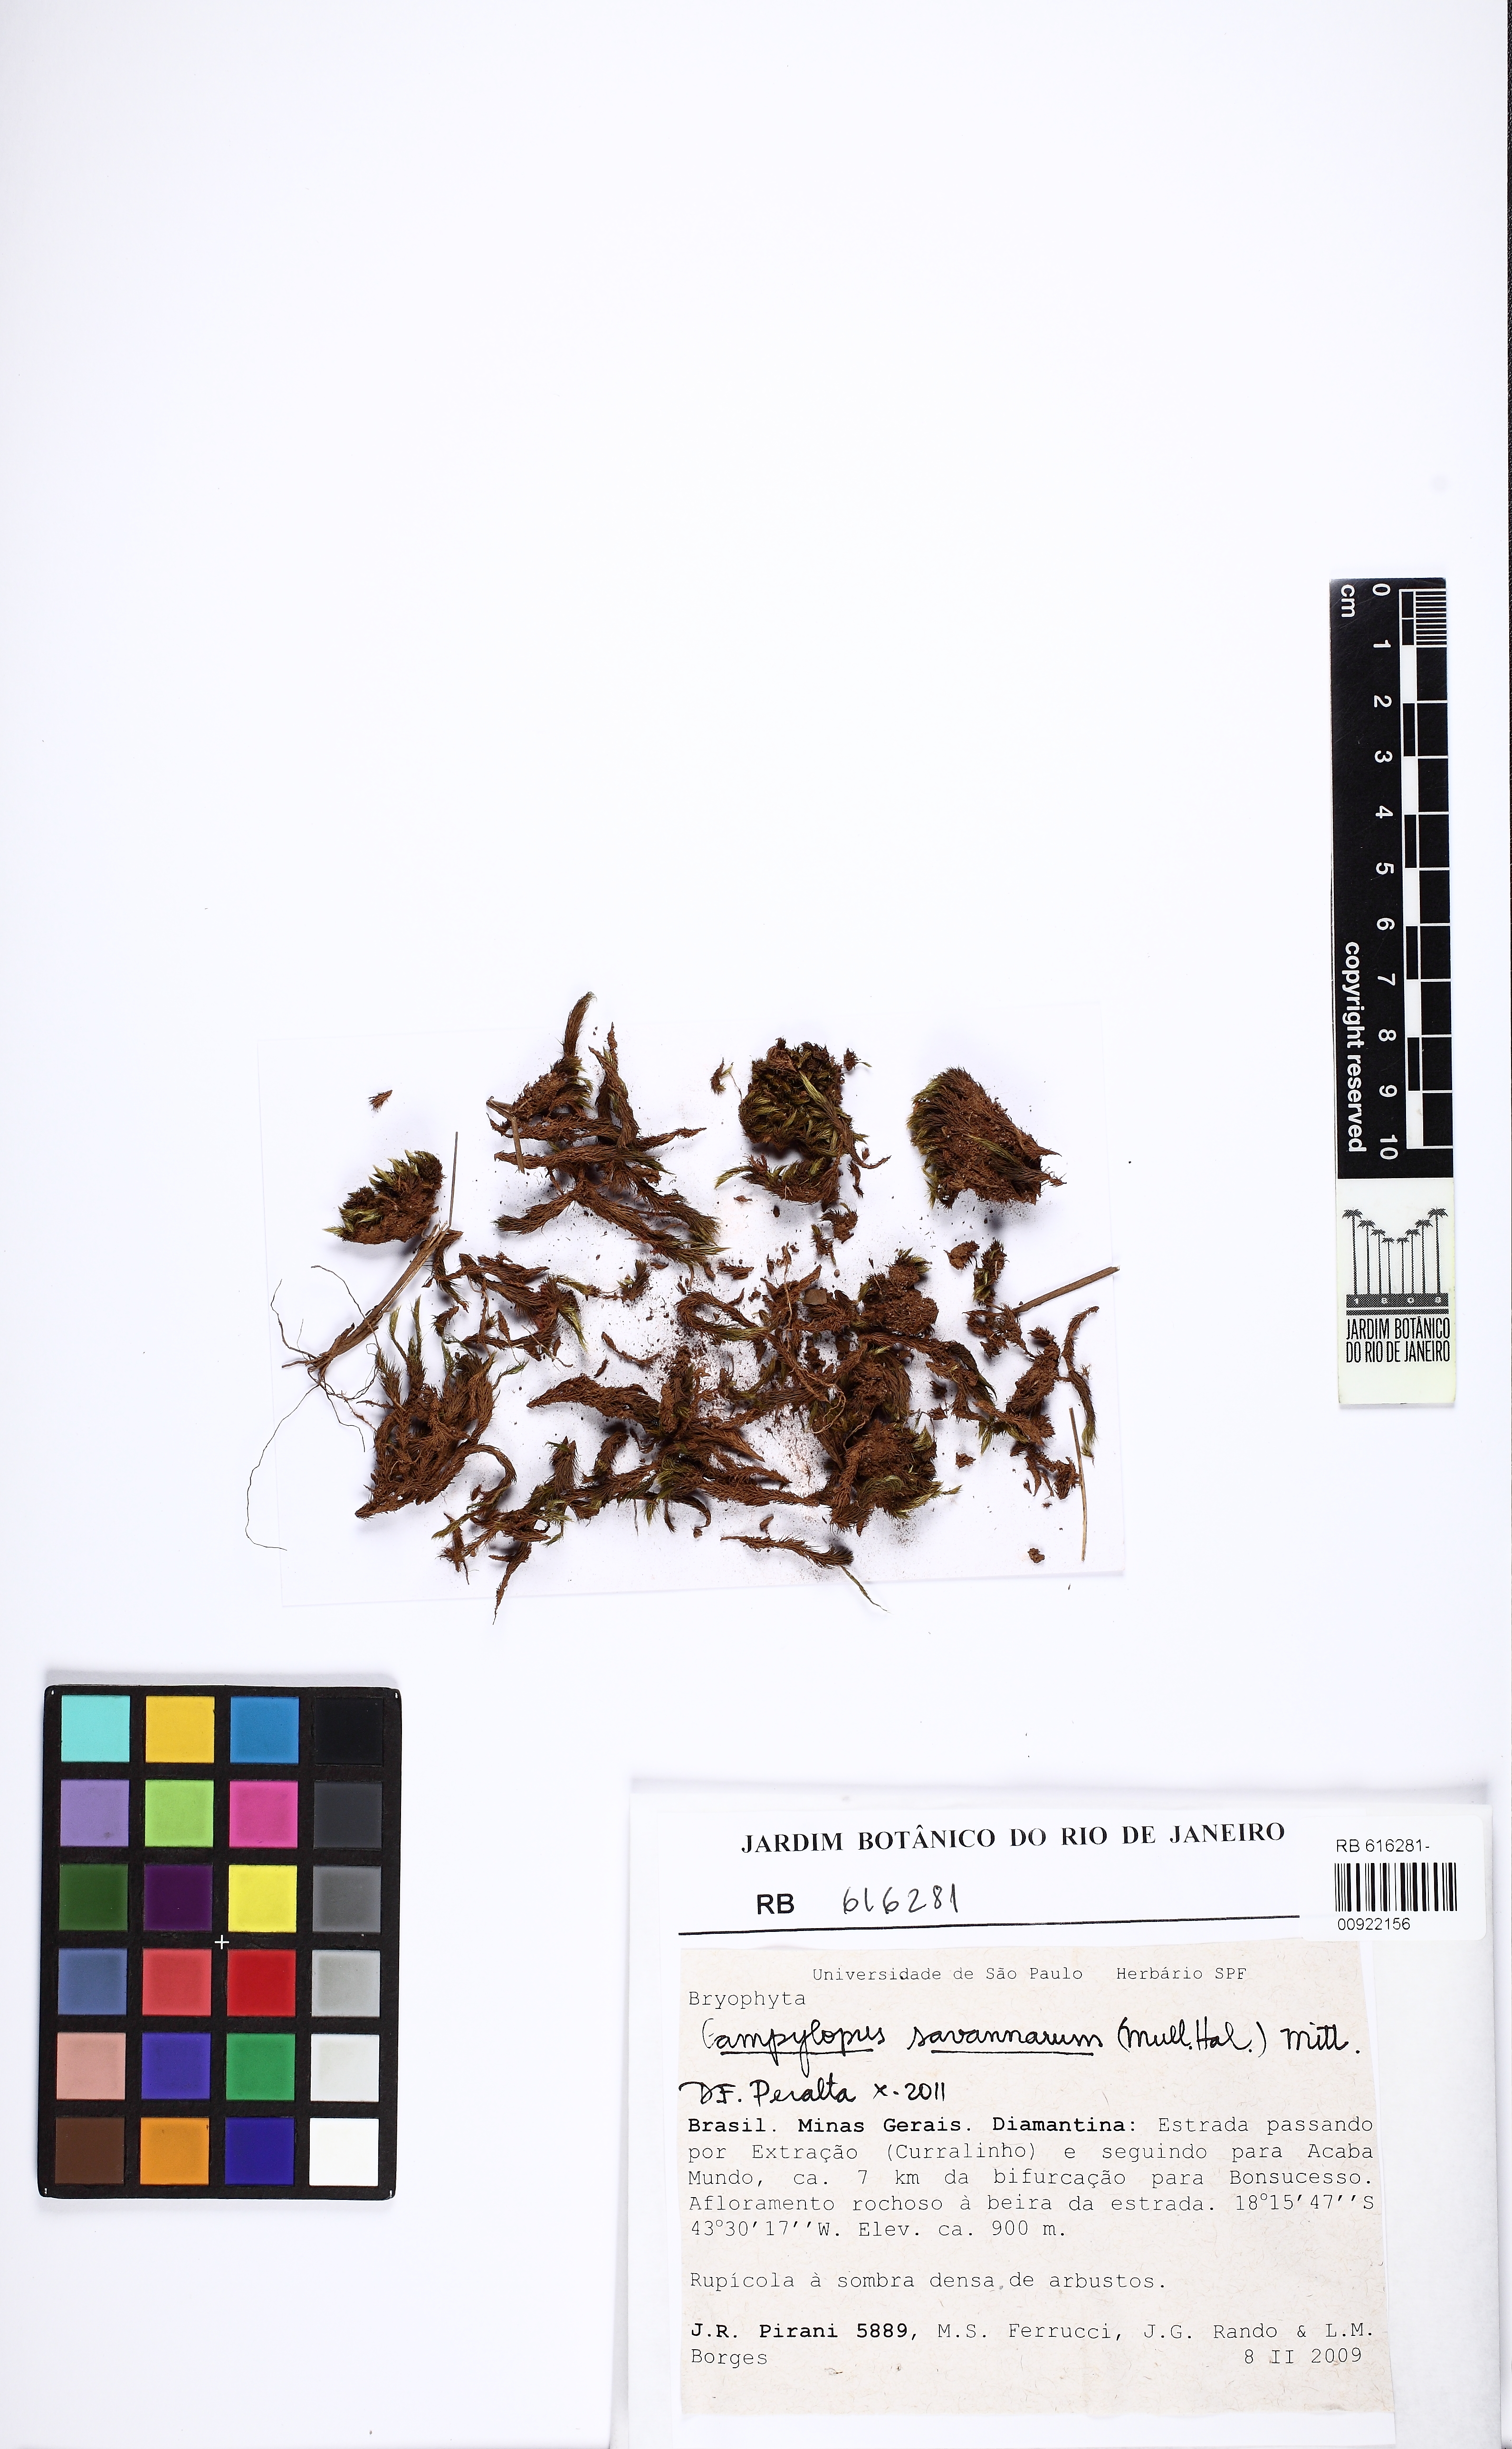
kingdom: Plantae
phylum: Bryophyta
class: Bryopsida
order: Dicranales
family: Leucobryaceae
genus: Campylopus
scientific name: Campylopus savannarum
